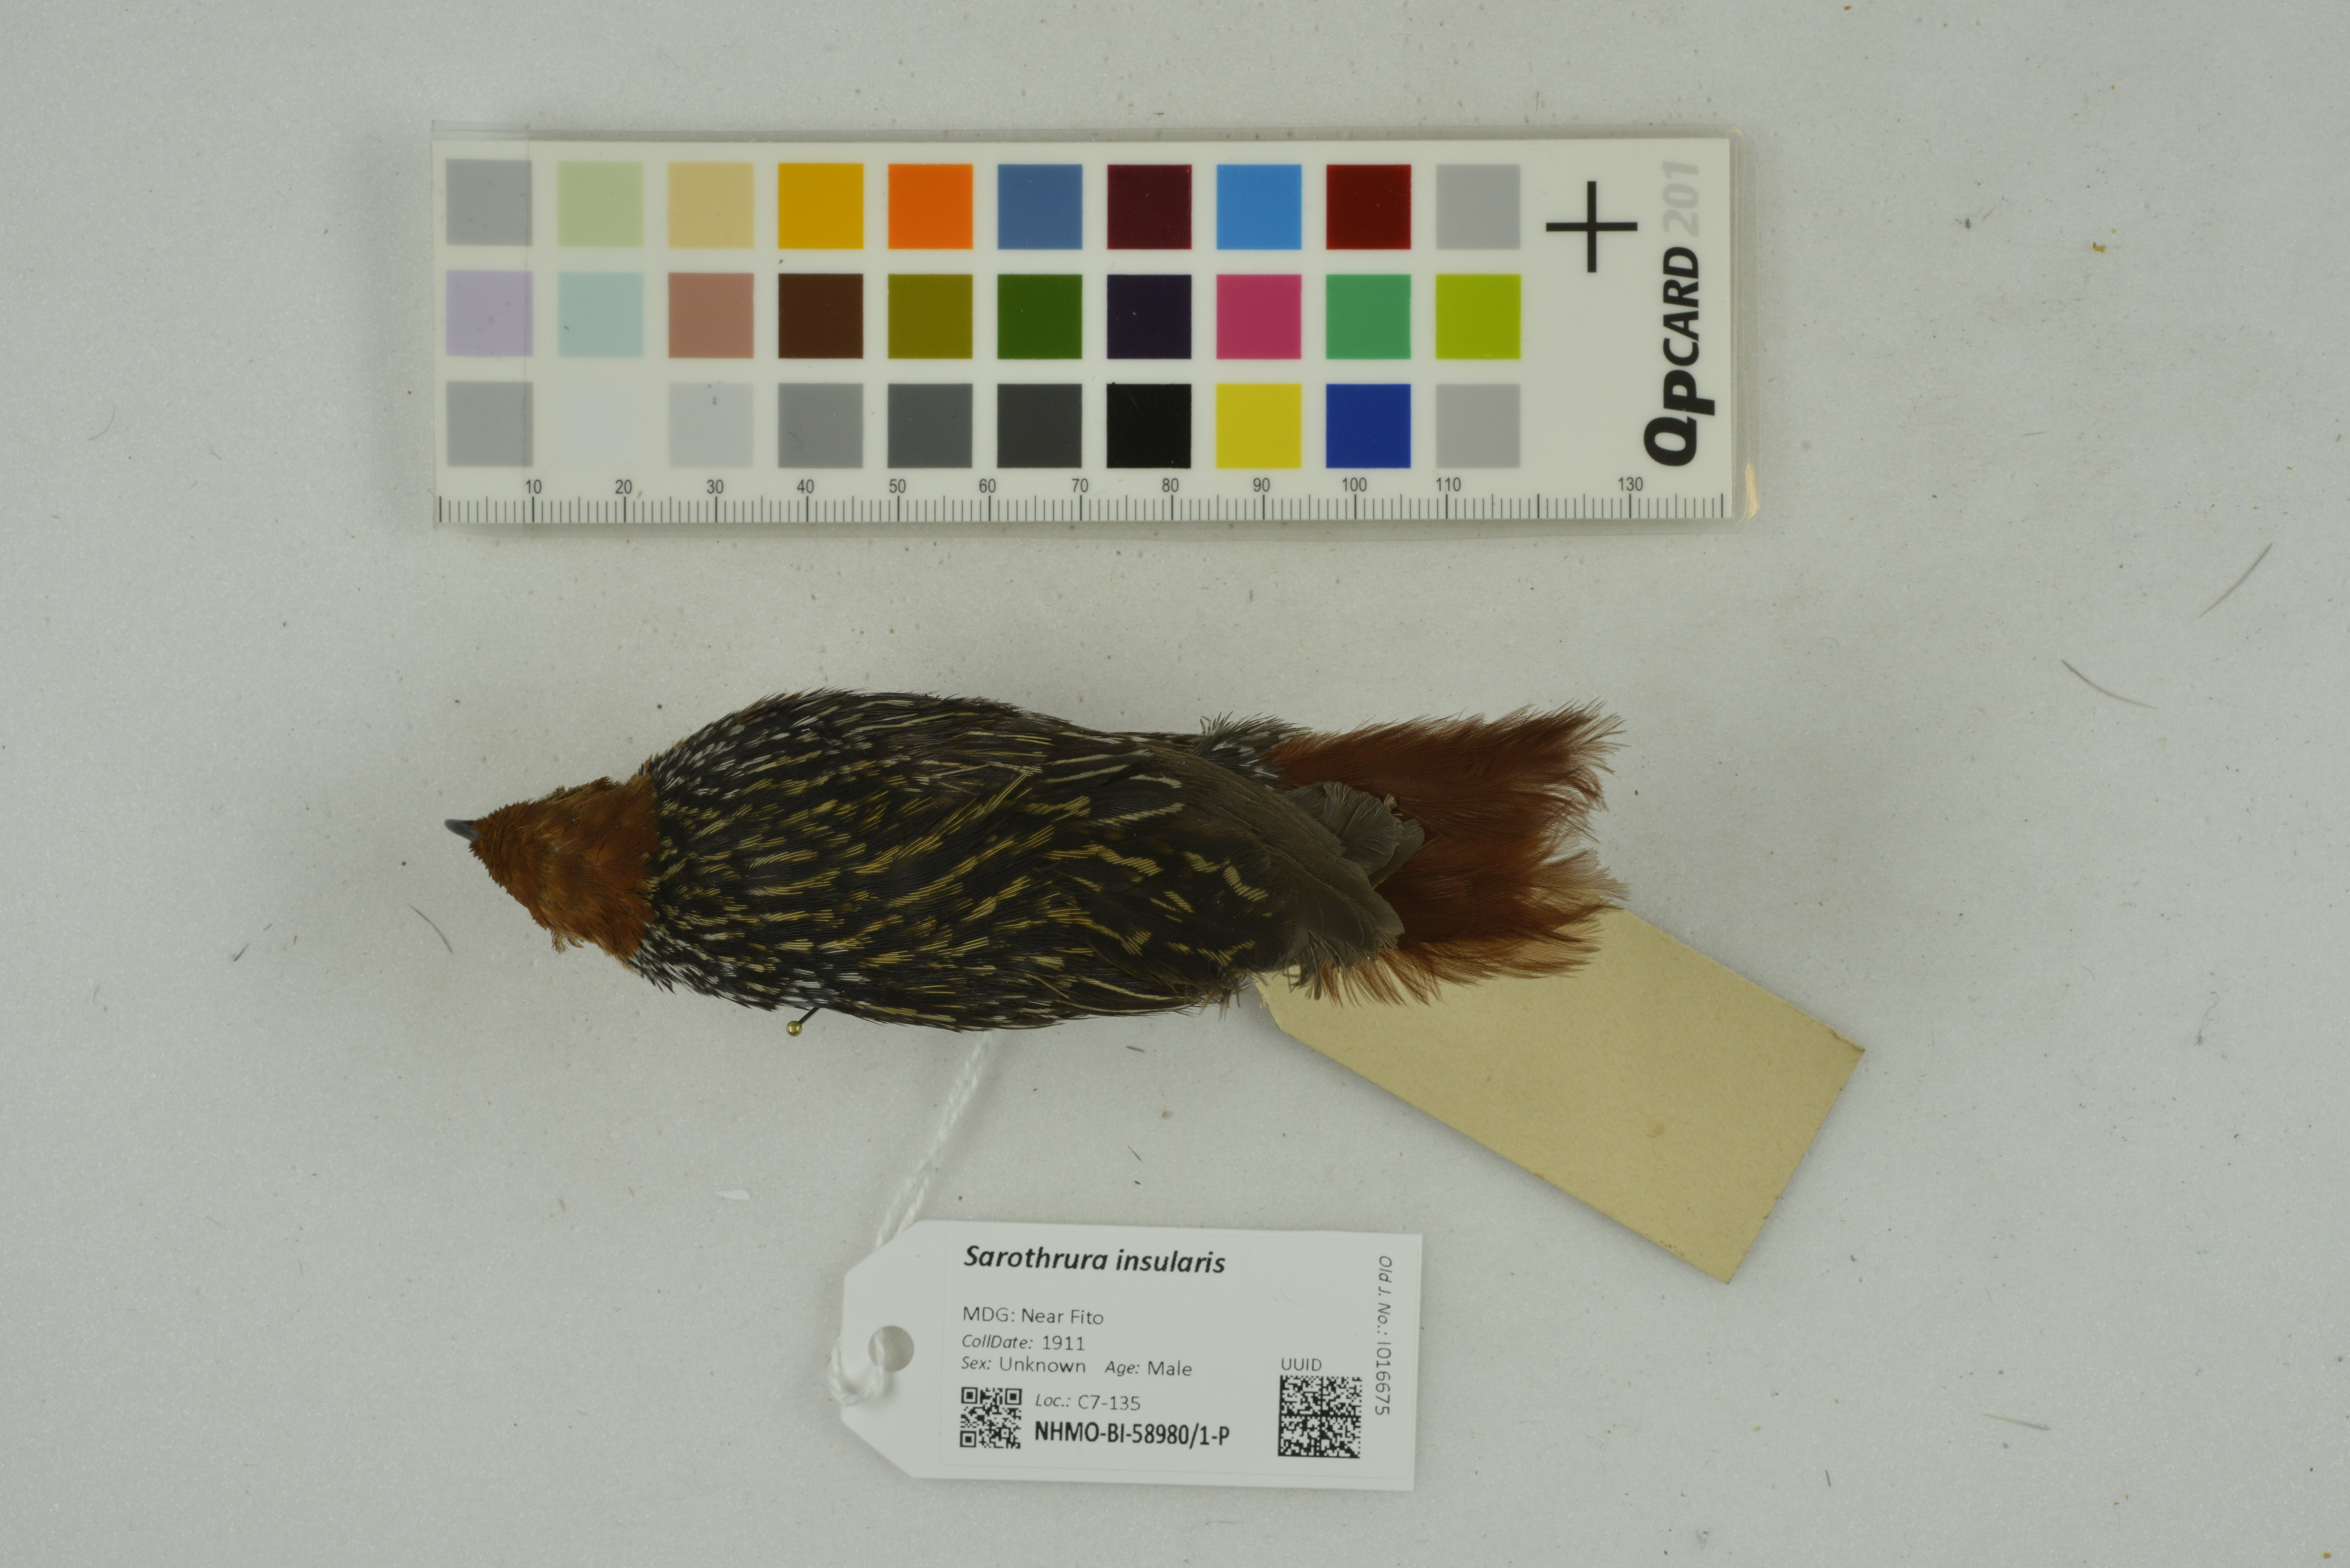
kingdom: Animalia
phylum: Chordata
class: Aves
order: Gruiformes
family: Rallidae
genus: Sarothrura
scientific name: Sarothrura insularis
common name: Madagascar flufftail
